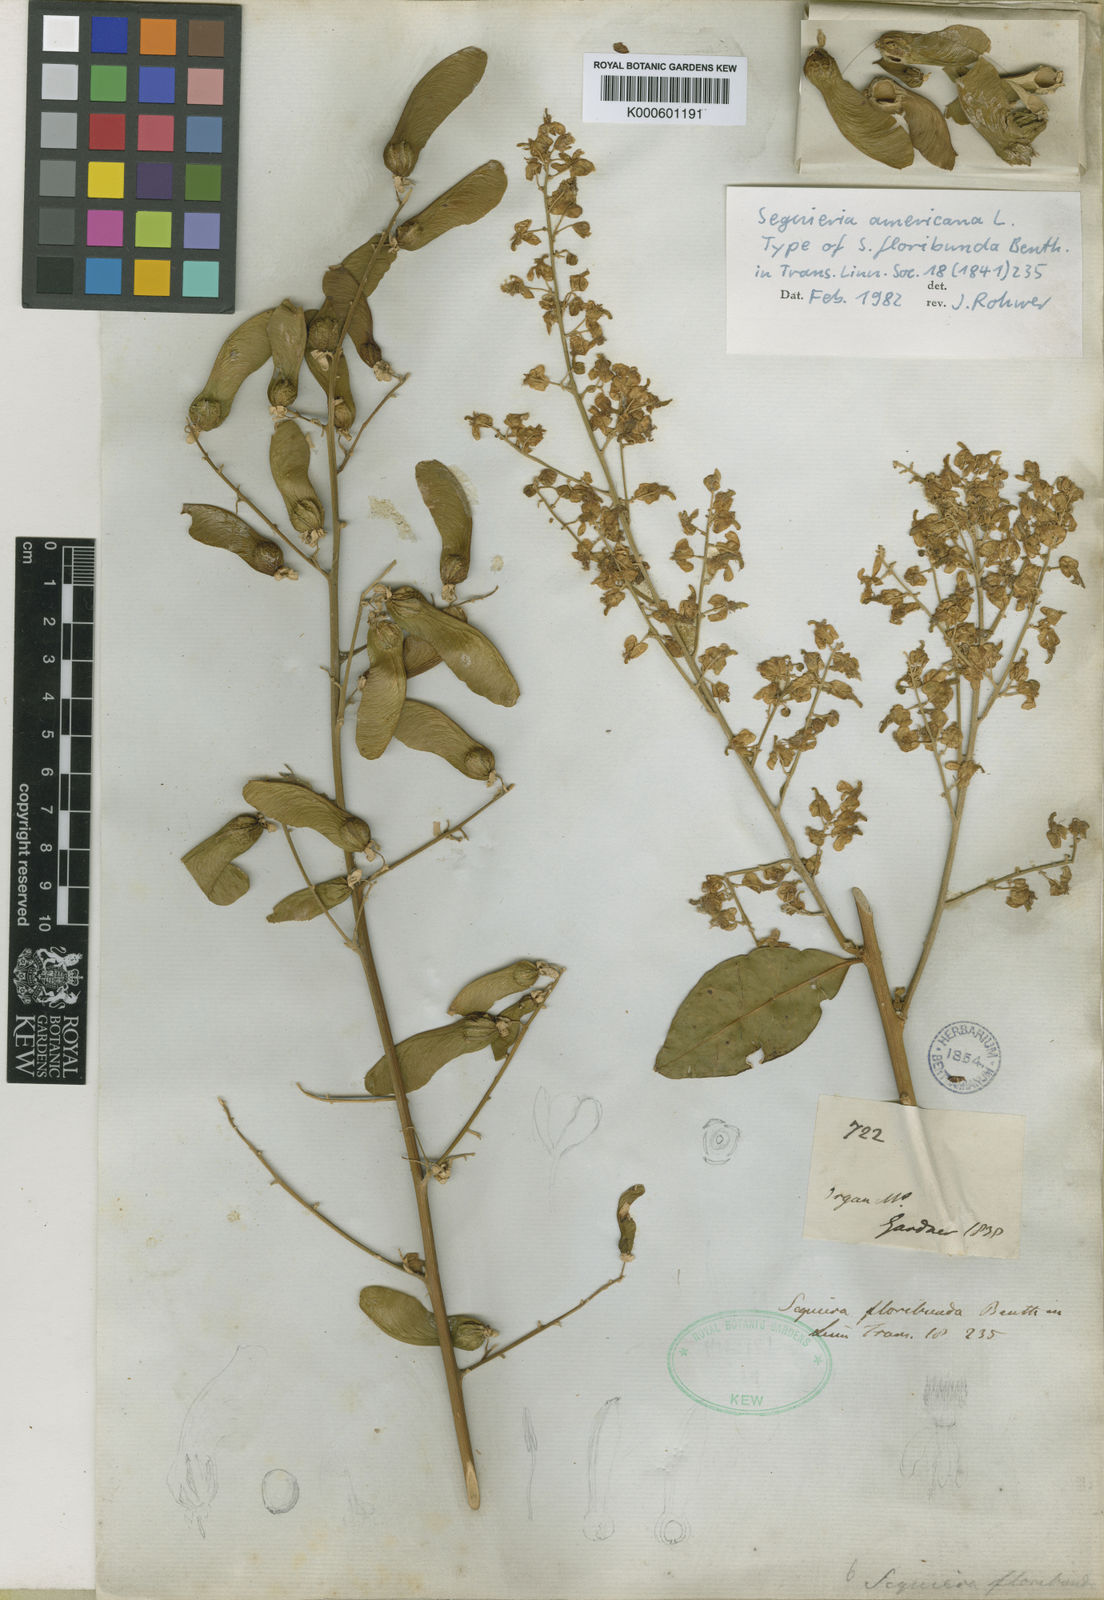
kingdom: Plantae
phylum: Tracheophyta
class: Magnoliopsida
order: Caryophyllales
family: Phytolaccaceae
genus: Seguieria
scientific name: Seguieria americana
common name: American seguieria
